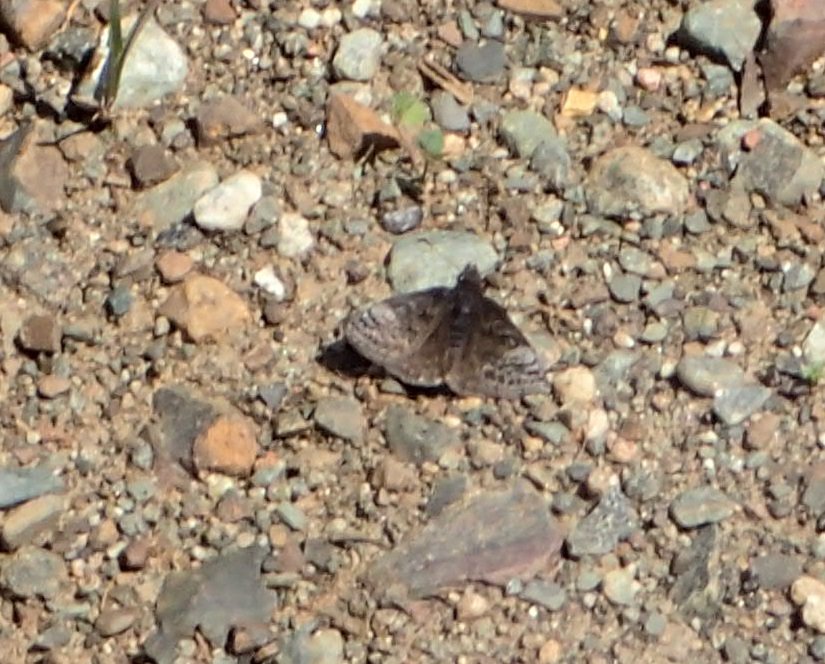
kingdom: Animalia
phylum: Arthropoda
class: Insecta
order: Lepidoptera
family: Hesperiidae
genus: Erynnis
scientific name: Erynnis icelus
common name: Dreamy Duskywing
